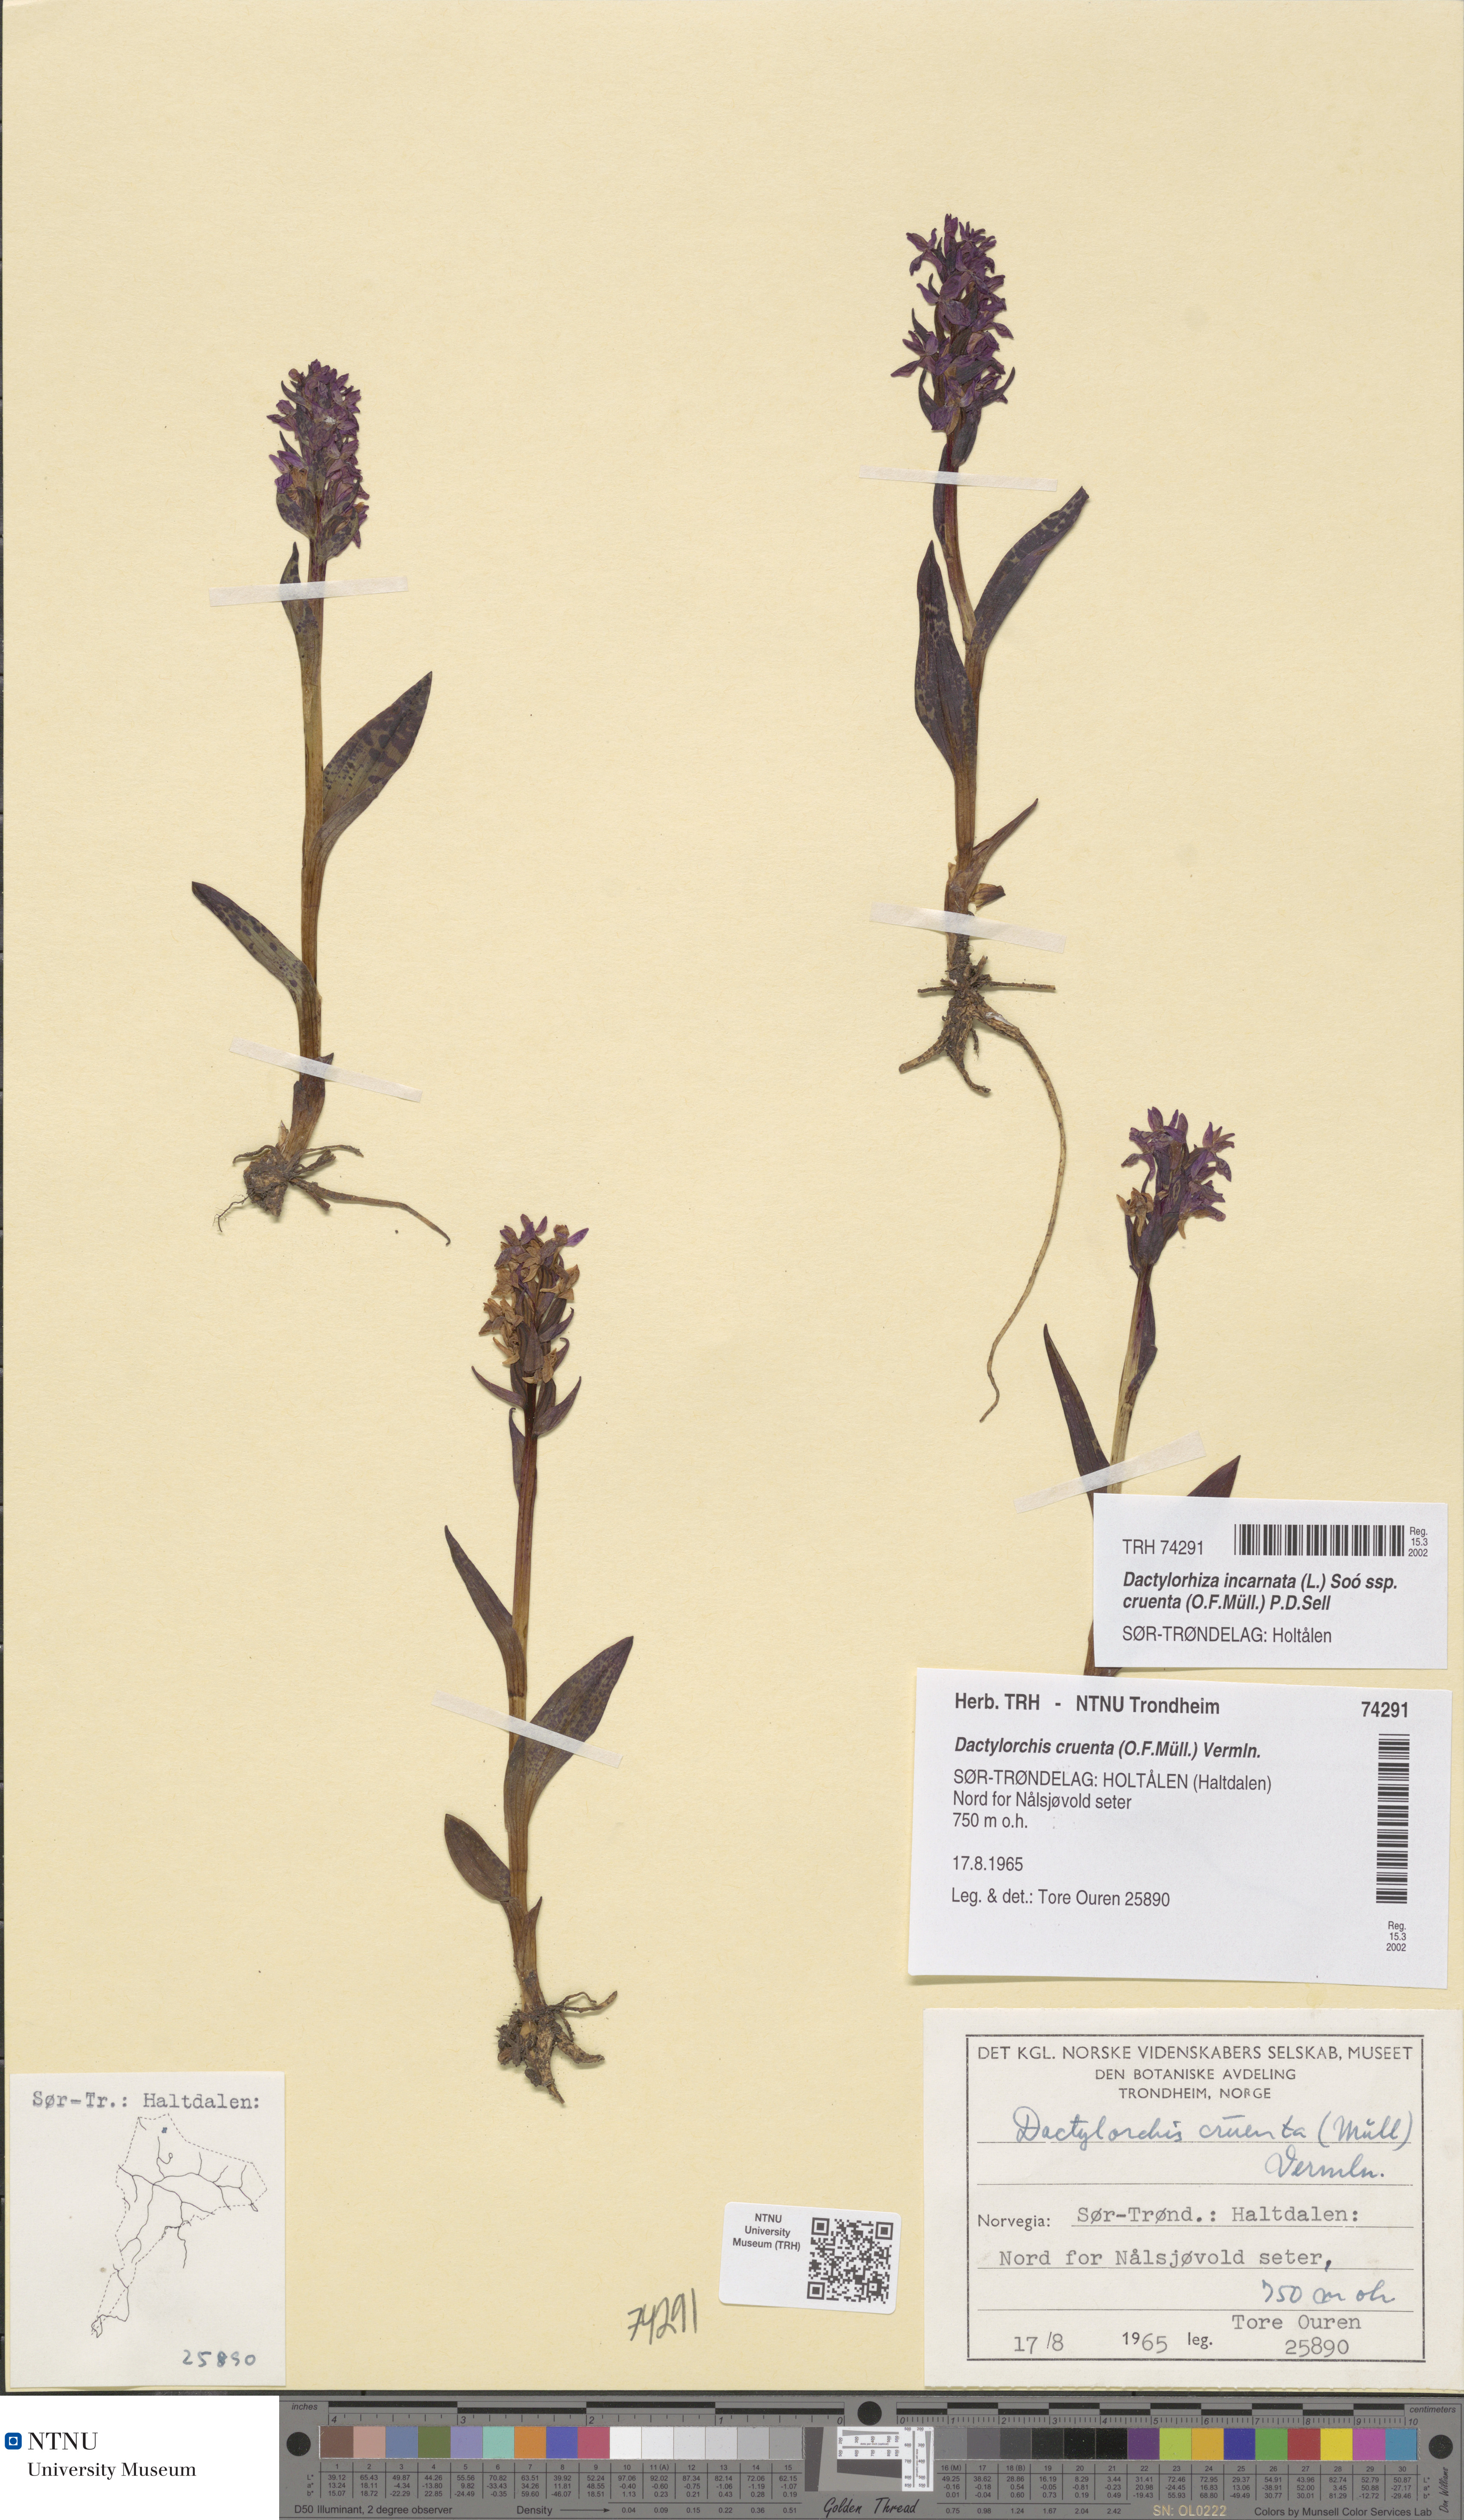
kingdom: Plantae
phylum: Tracheophyta
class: Liliopsida
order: Asparagales
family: Orchidaceae
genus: Dactylorhiza
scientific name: Dactylorhiza incarnata
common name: Early marsh-orchid
